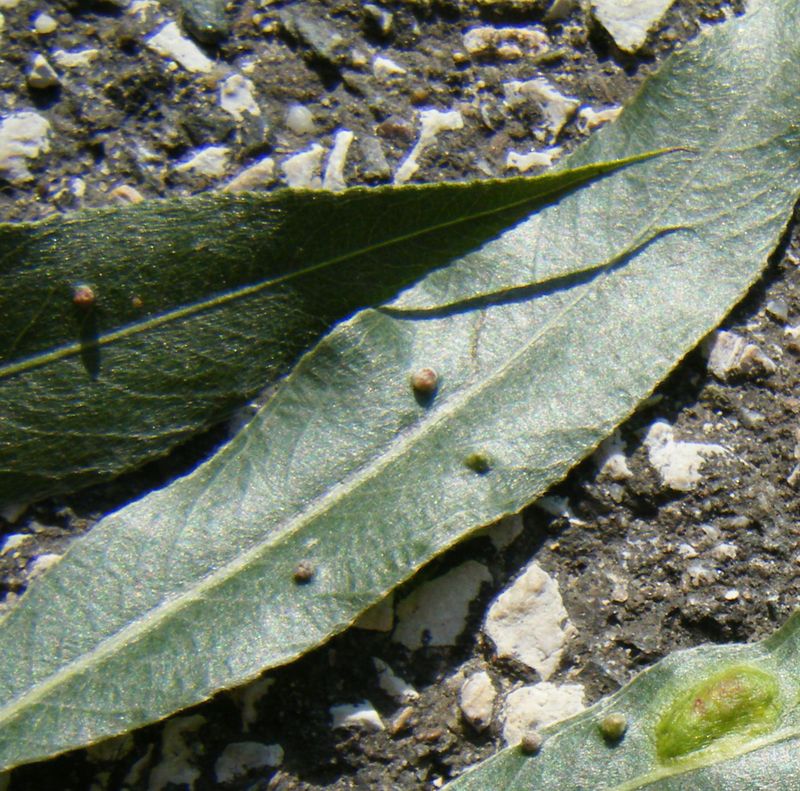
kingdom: Animalia
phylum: Arthropoda
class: Arachnida
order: Trombidiformes
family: Eriophyidae
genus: Aceria
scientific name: Aceria tetanothorax
